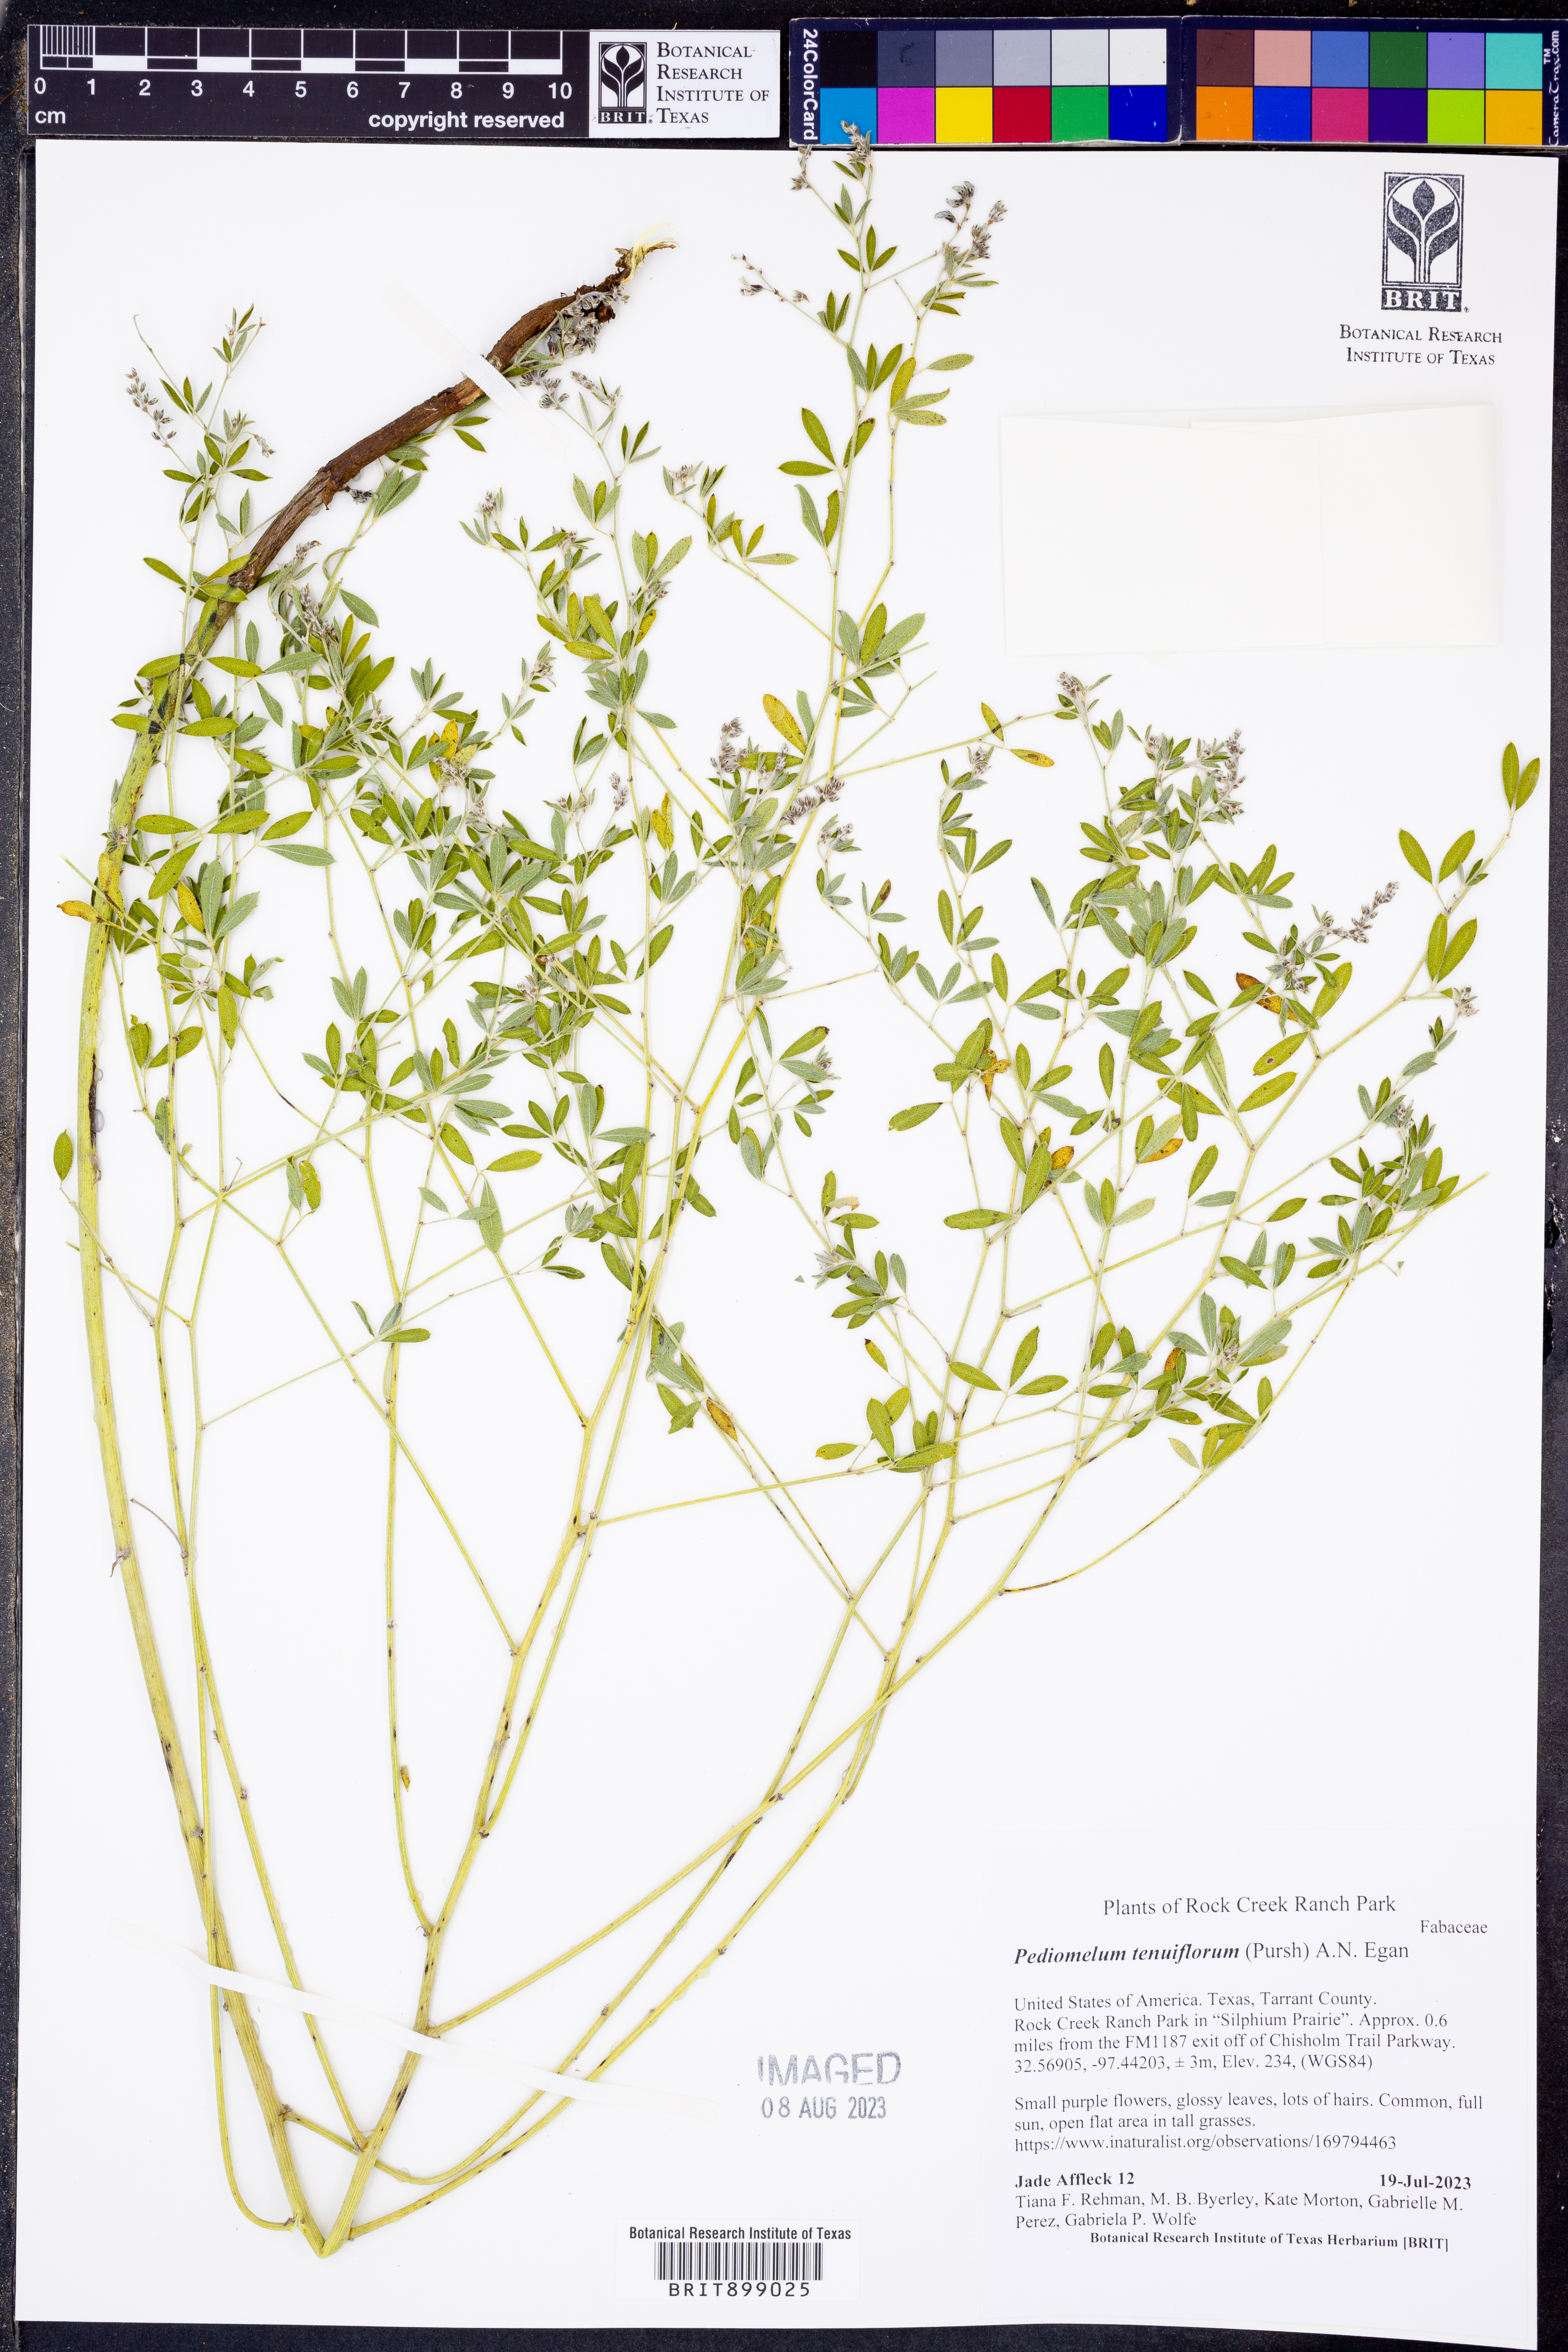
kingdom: Plantae
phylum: Tracheophyta
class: Magnoliopsida
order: Fabales
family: Fabaceae
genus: Pediomelum
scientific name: Pediomelum tenuiflorum
